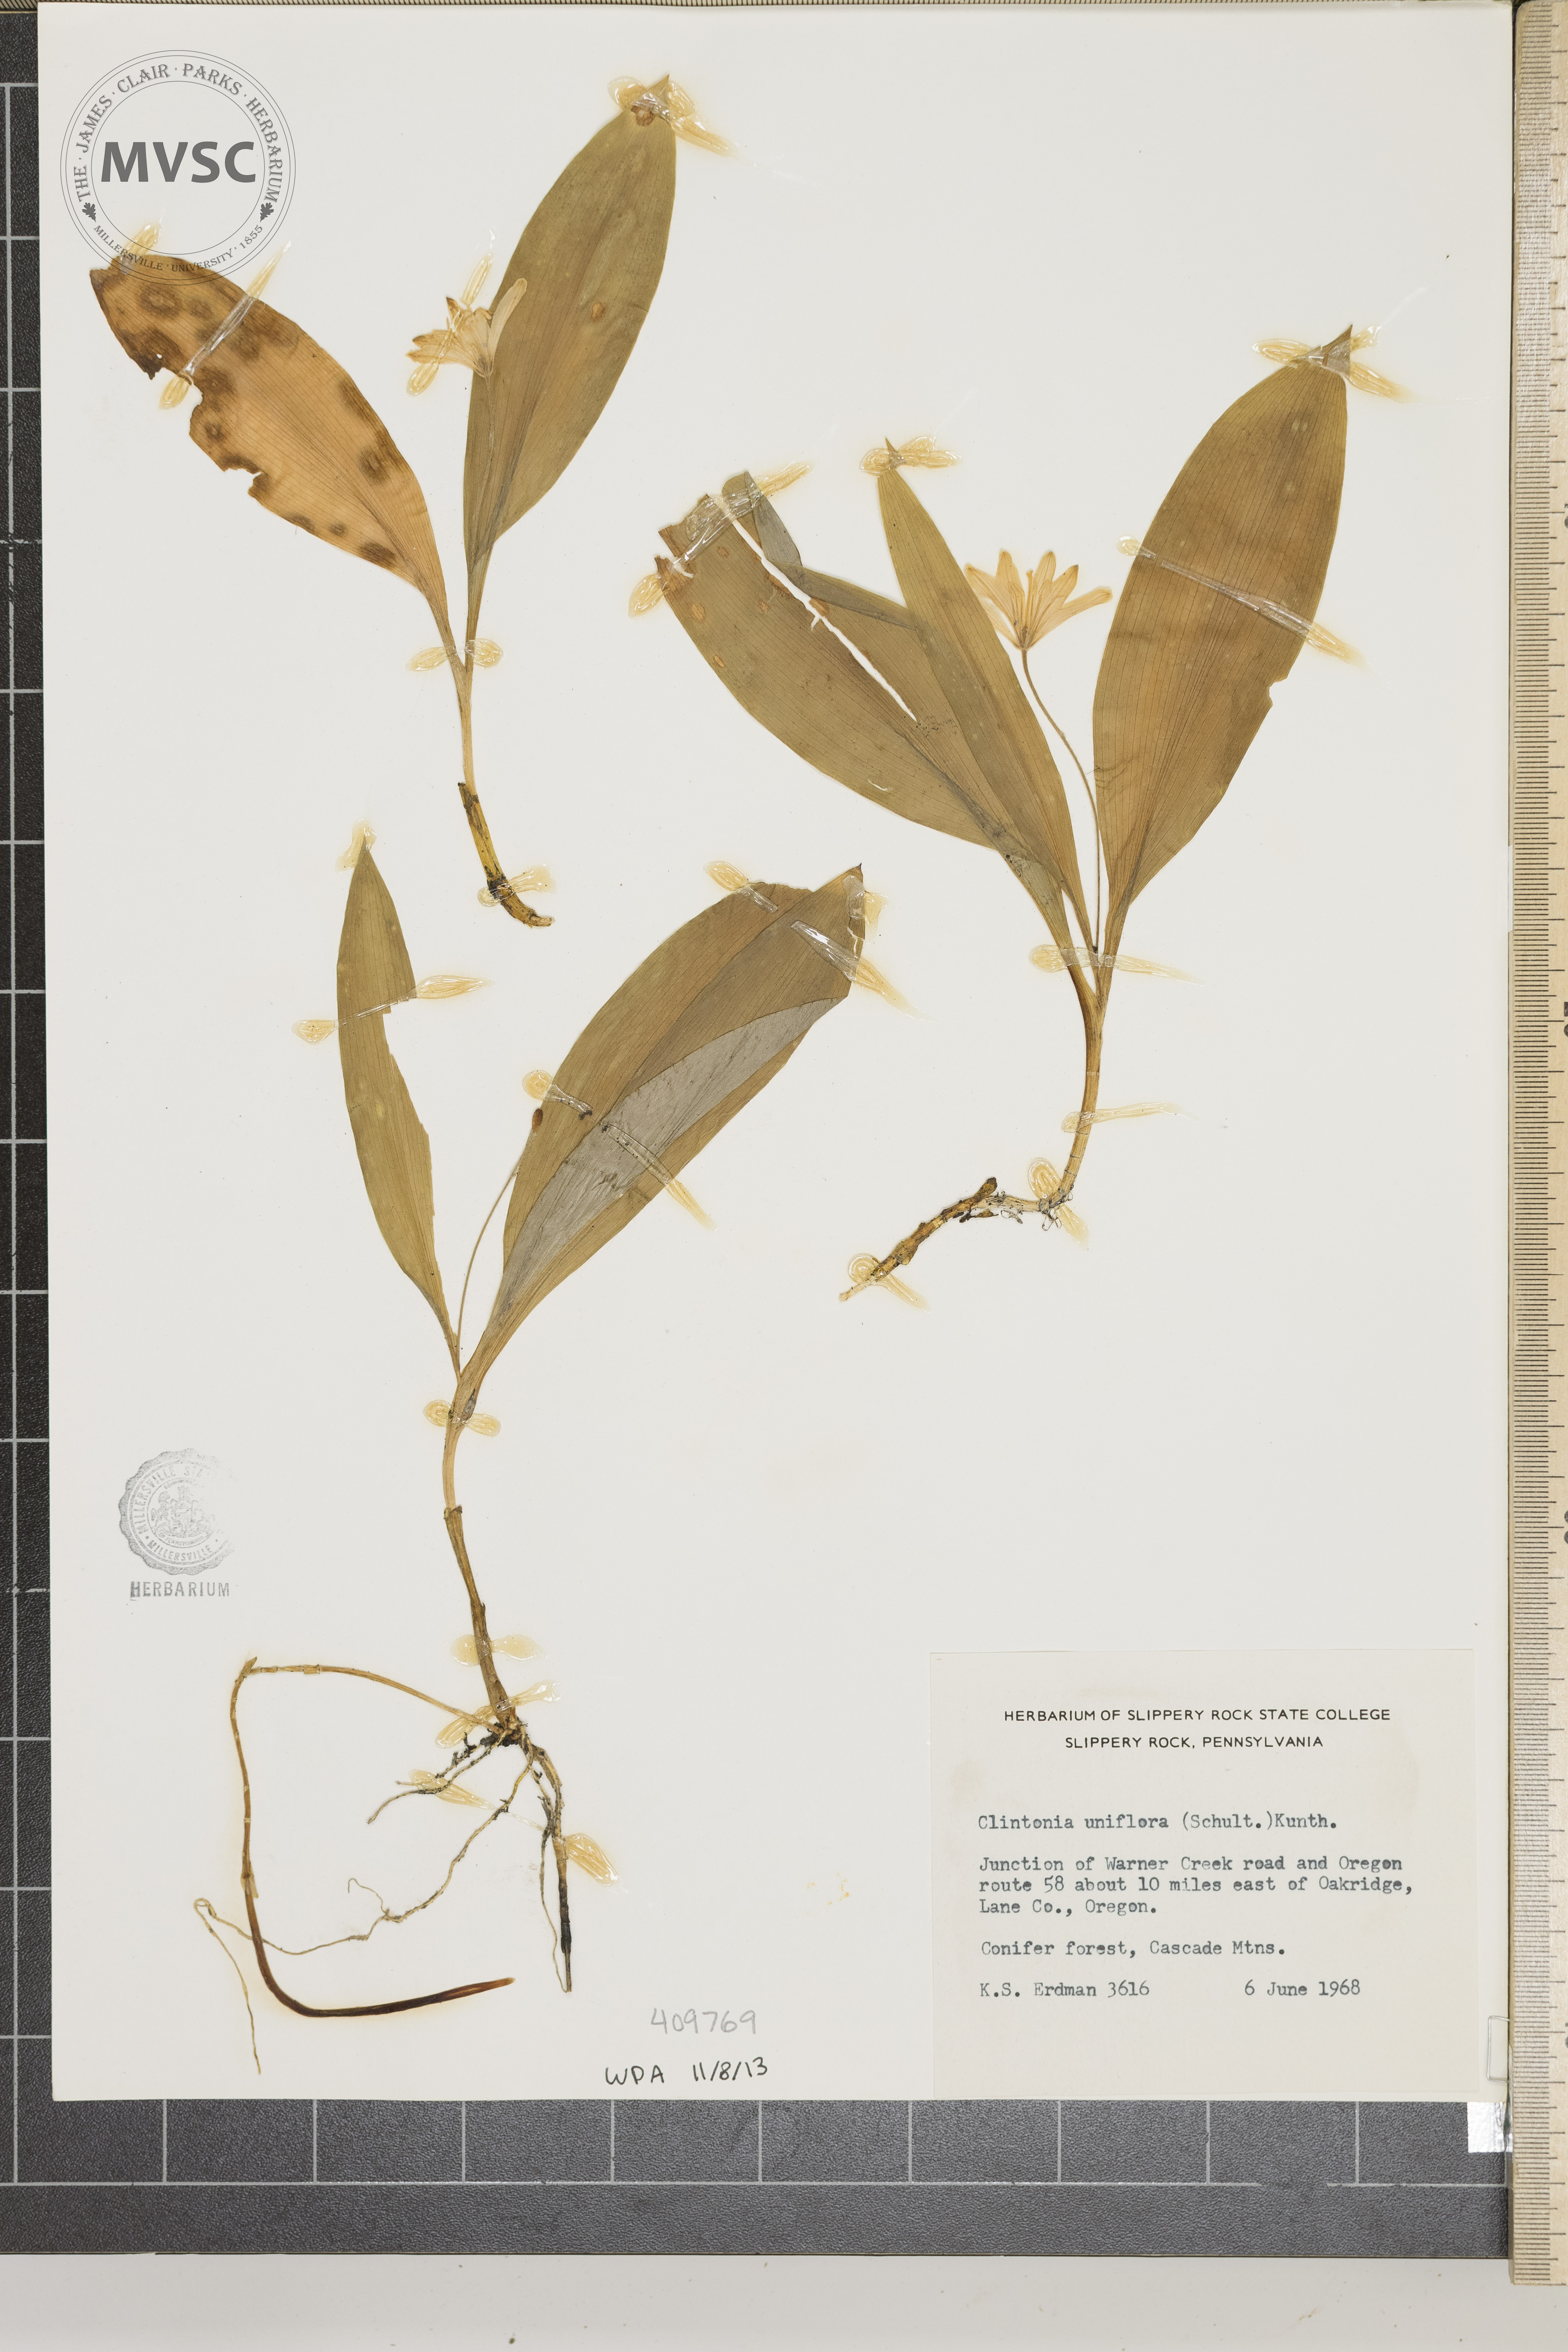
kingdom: Plantae
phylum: Tracheophyta
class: Liliopsida
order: Liliales
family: Liliaceae
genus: Clintonia
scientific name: Clintonia uniflora
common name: Queen's cup
